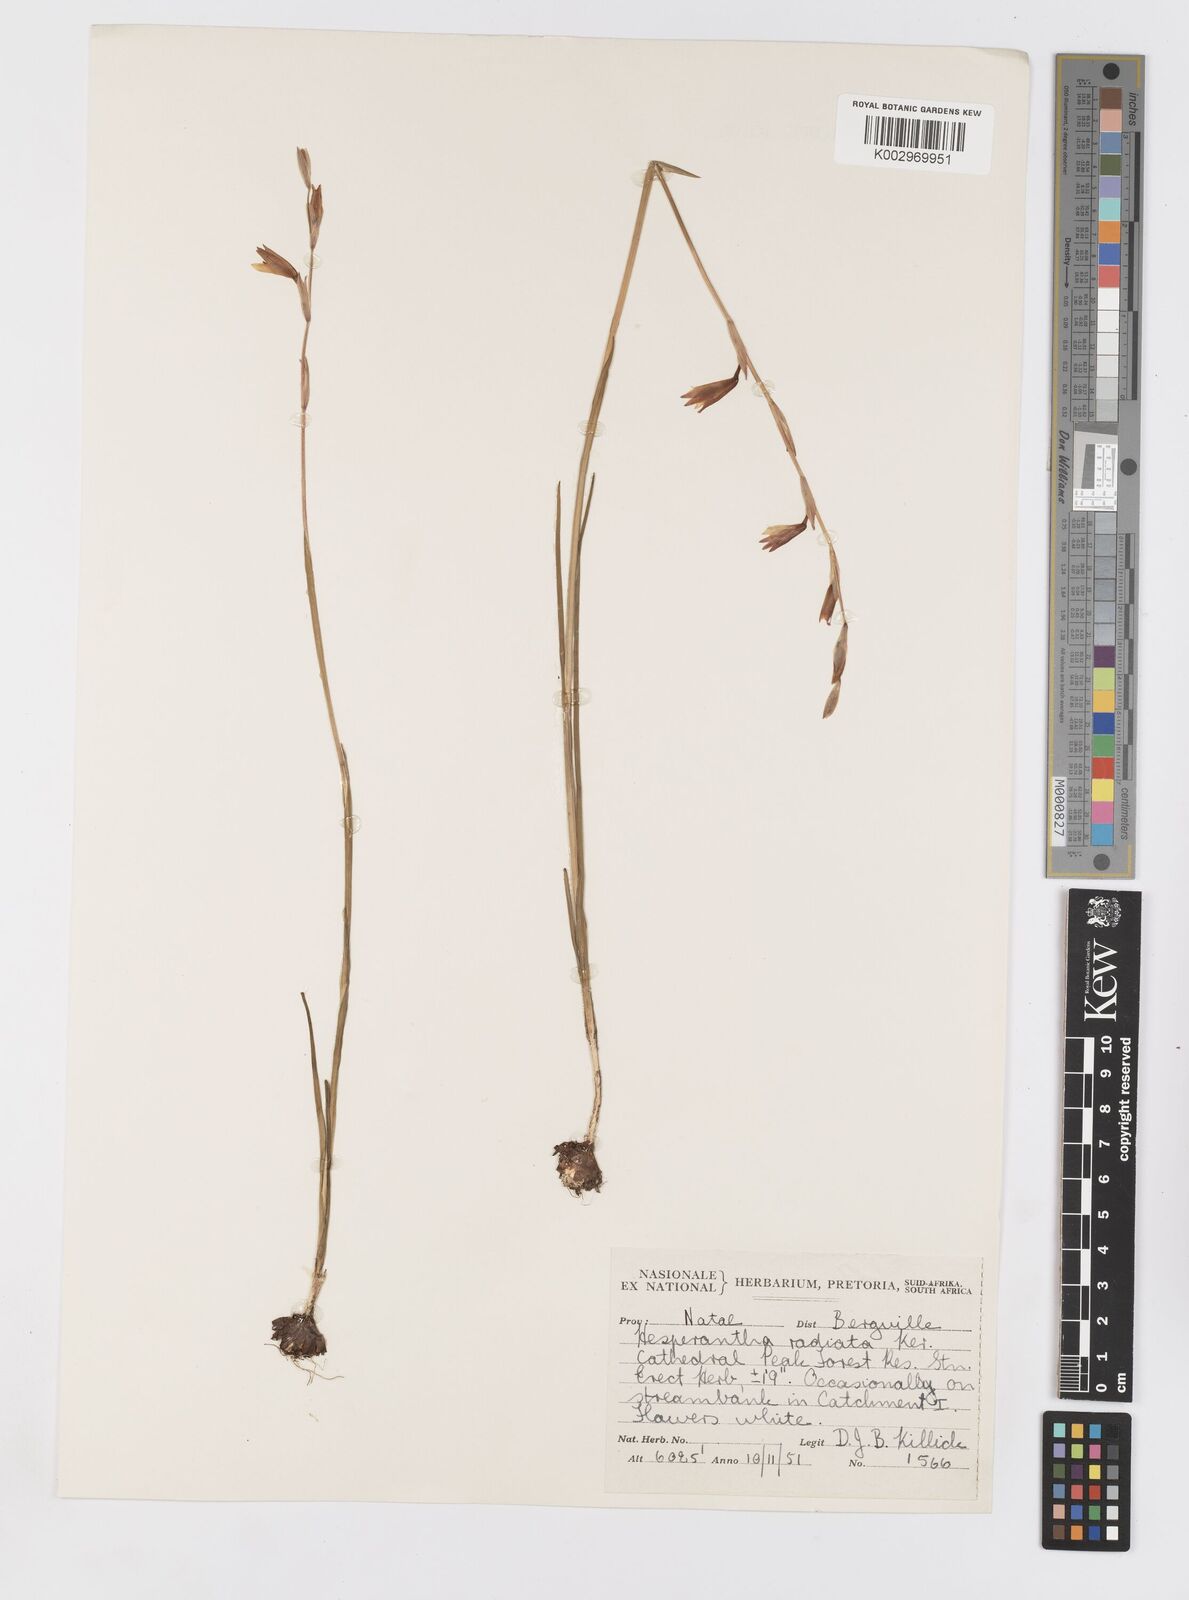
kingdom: Plantae
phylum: Tracheophyta
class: Liliopsida
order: Asparagales
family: Iridaceae
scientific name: Iridaceae
